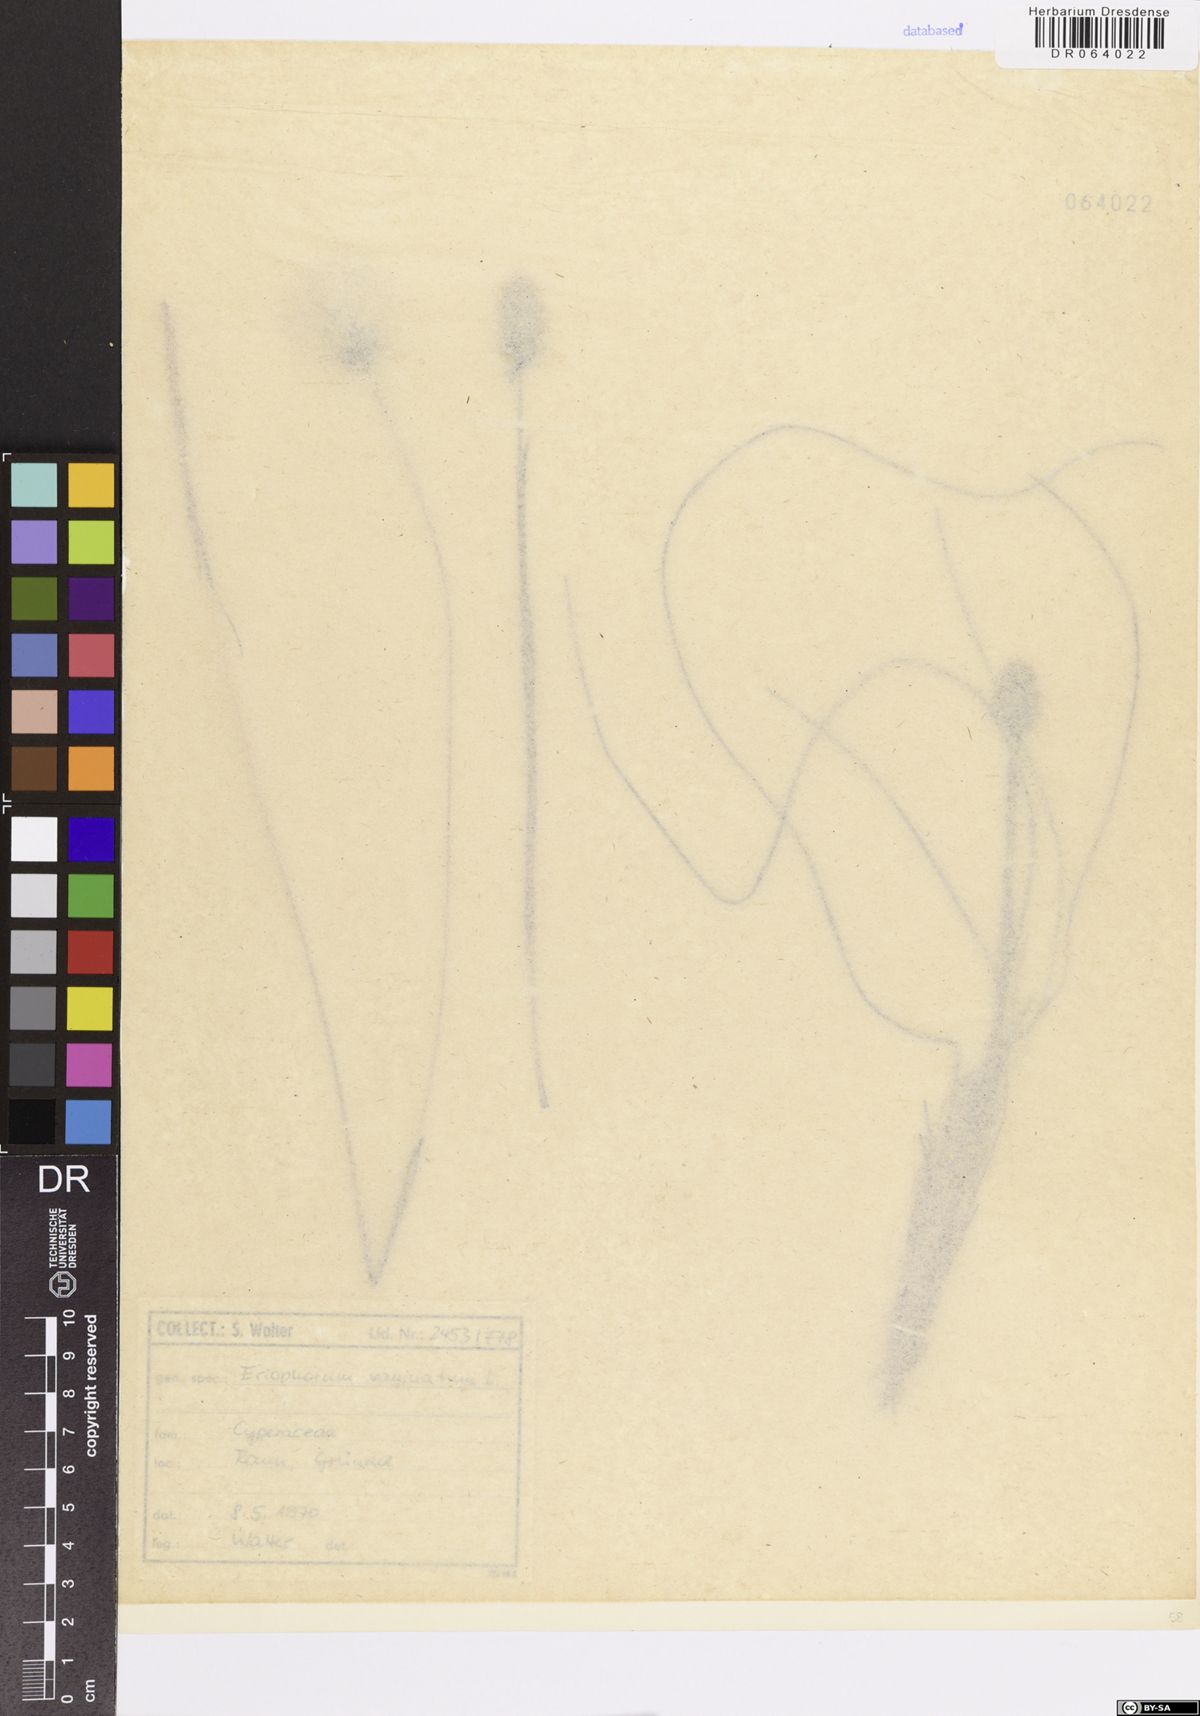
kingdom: Plantae
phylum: Tracheophyta
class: Liliopsida
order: Poales
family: Cyperaceae
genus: Eriophorum
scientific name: Eriophorum vaginatum
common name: Hare's-tail cottongrass
